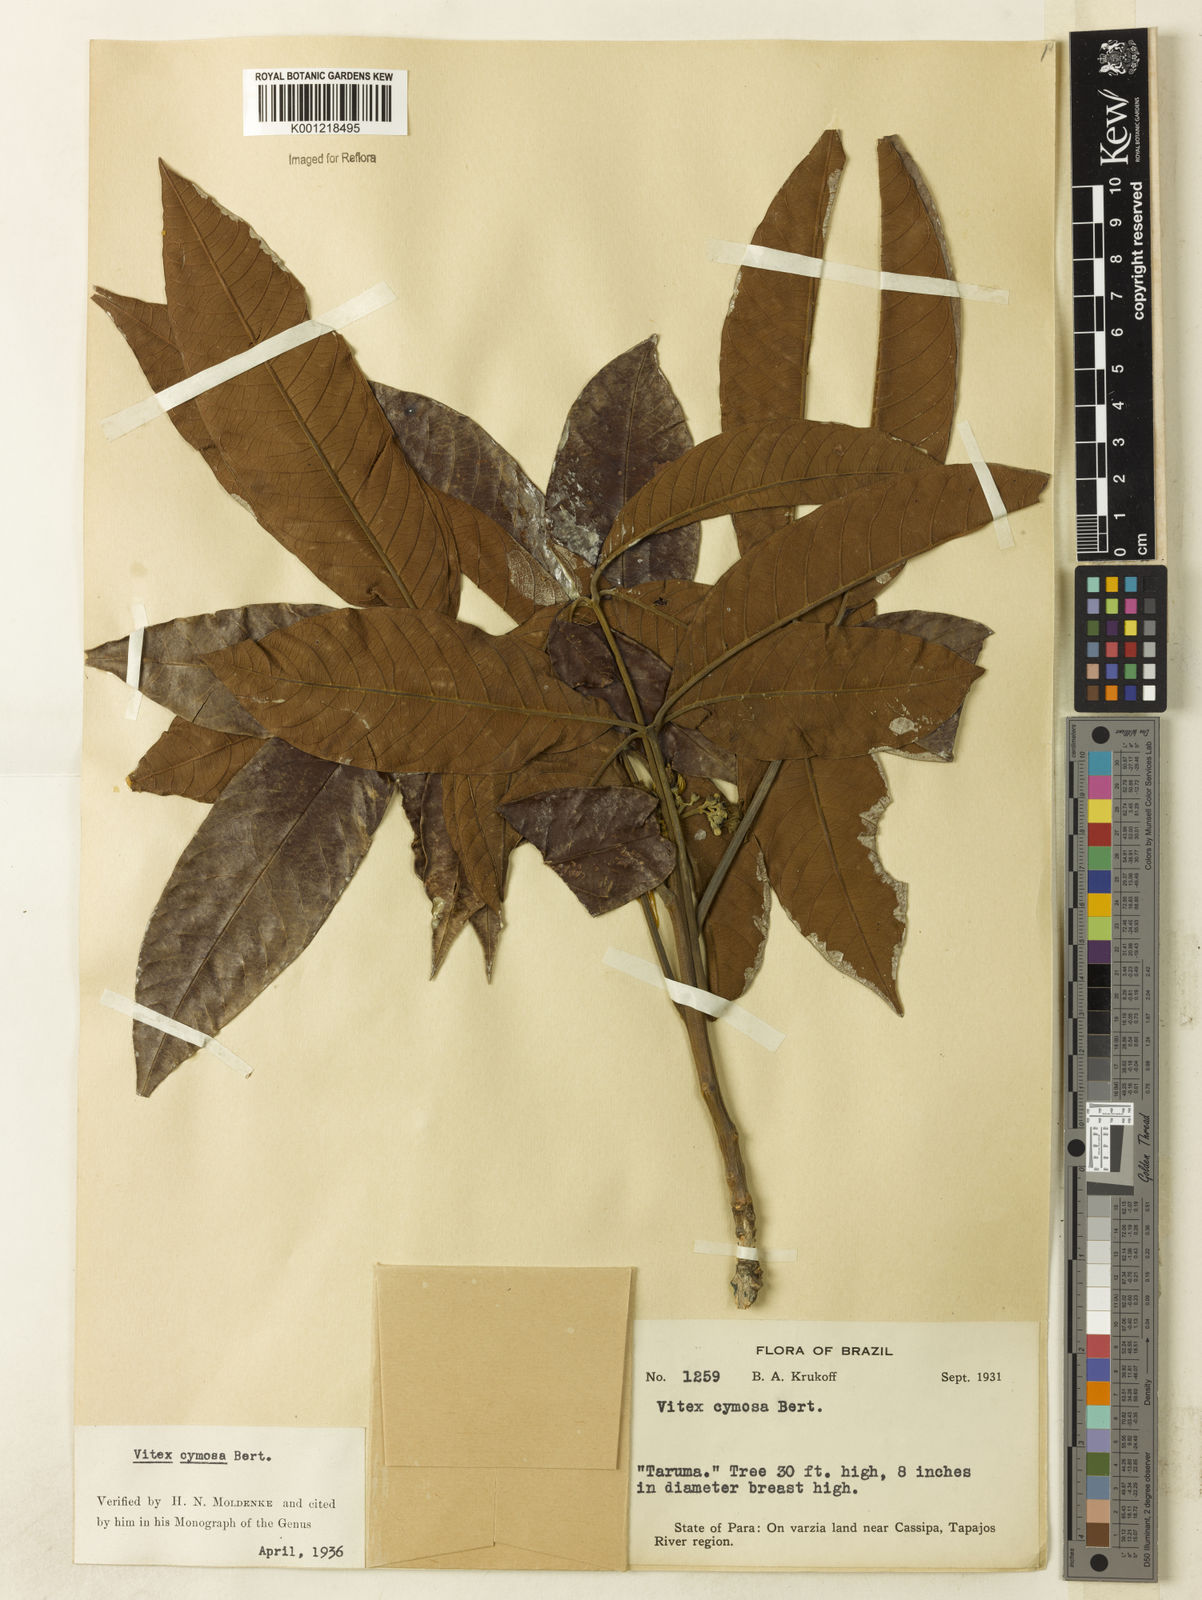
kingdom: Plantae
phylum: Tracheophyta
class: Magnoliopsida
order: Lamiales
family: Lamiaceae
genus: Vitex
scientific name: Vitex cymosa
